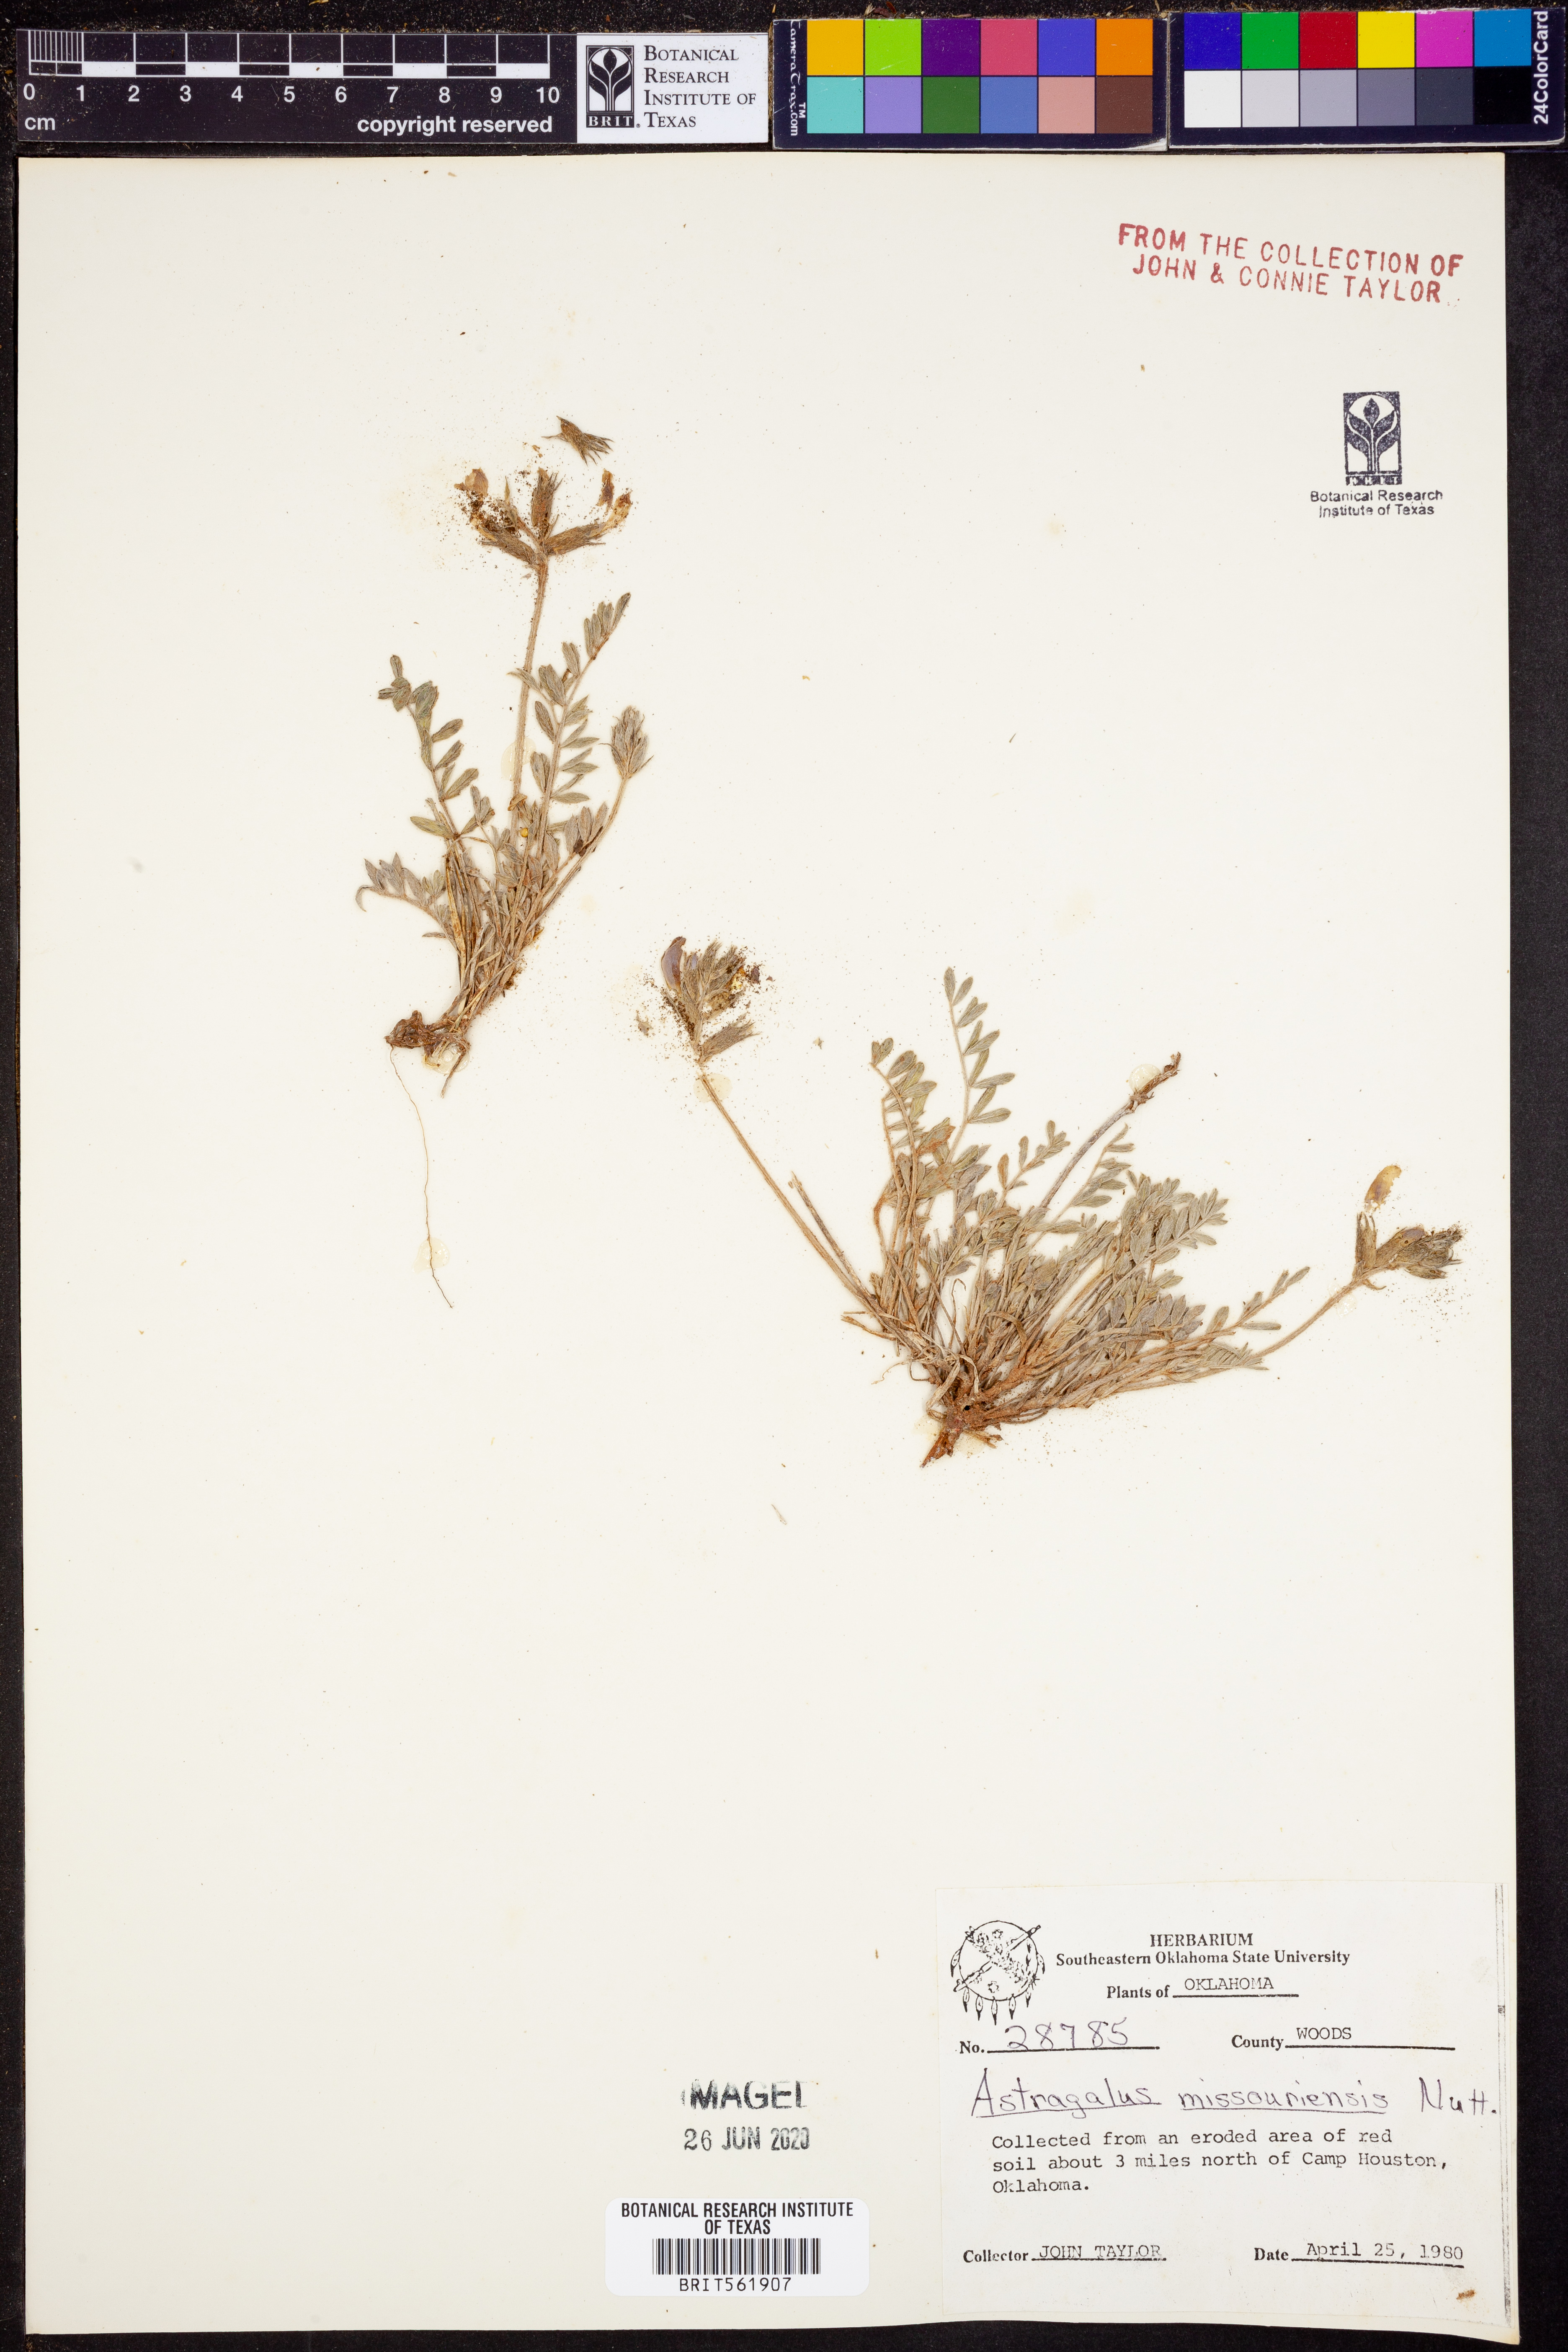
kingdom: Plantae
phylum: Tracheophyta
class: Magnoliopsida
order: Fabales
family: Fabaceae
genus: Astragalus
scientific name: Astragalus missouriensis
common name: Missouri milk-vetch
